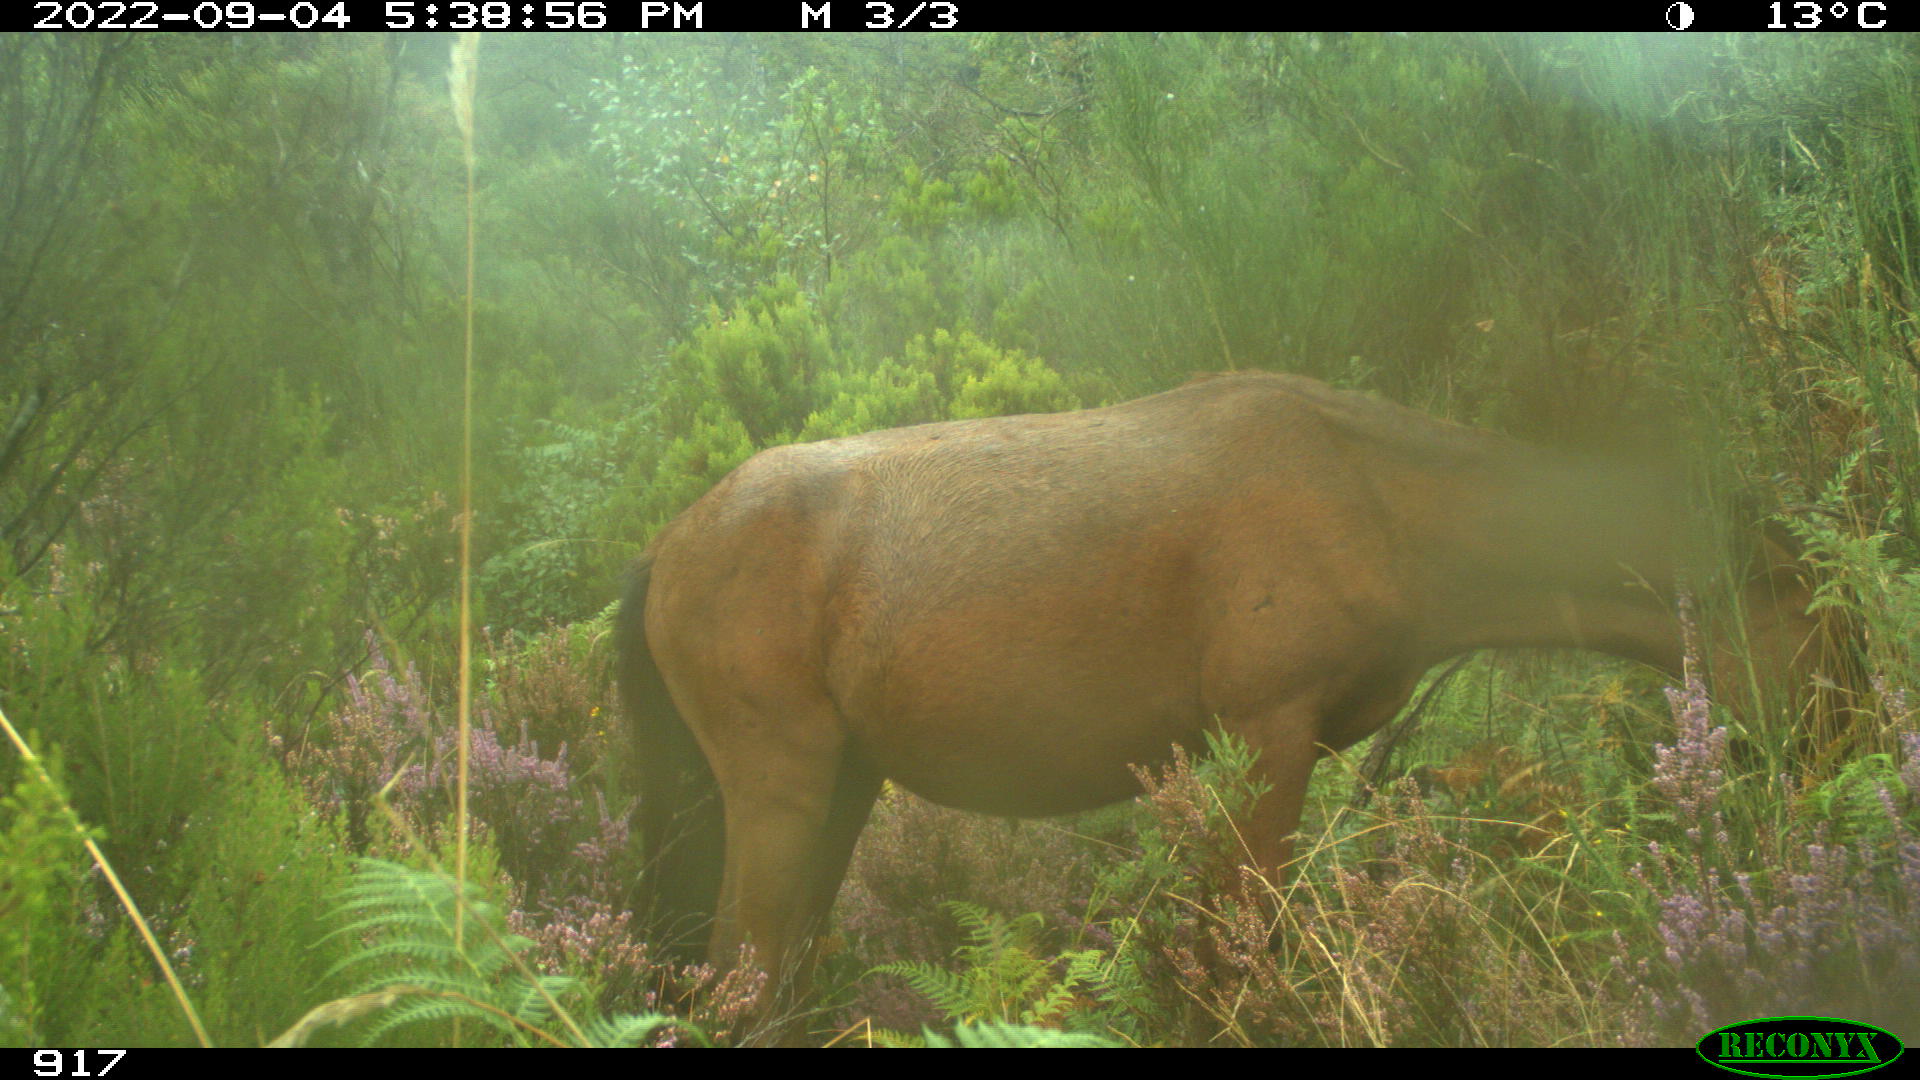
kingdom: Animalia
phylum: Chordata
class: Mammalia
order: Perissodactyla
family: Equidae
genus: Equus
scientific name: Equus caballus
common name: Horse
